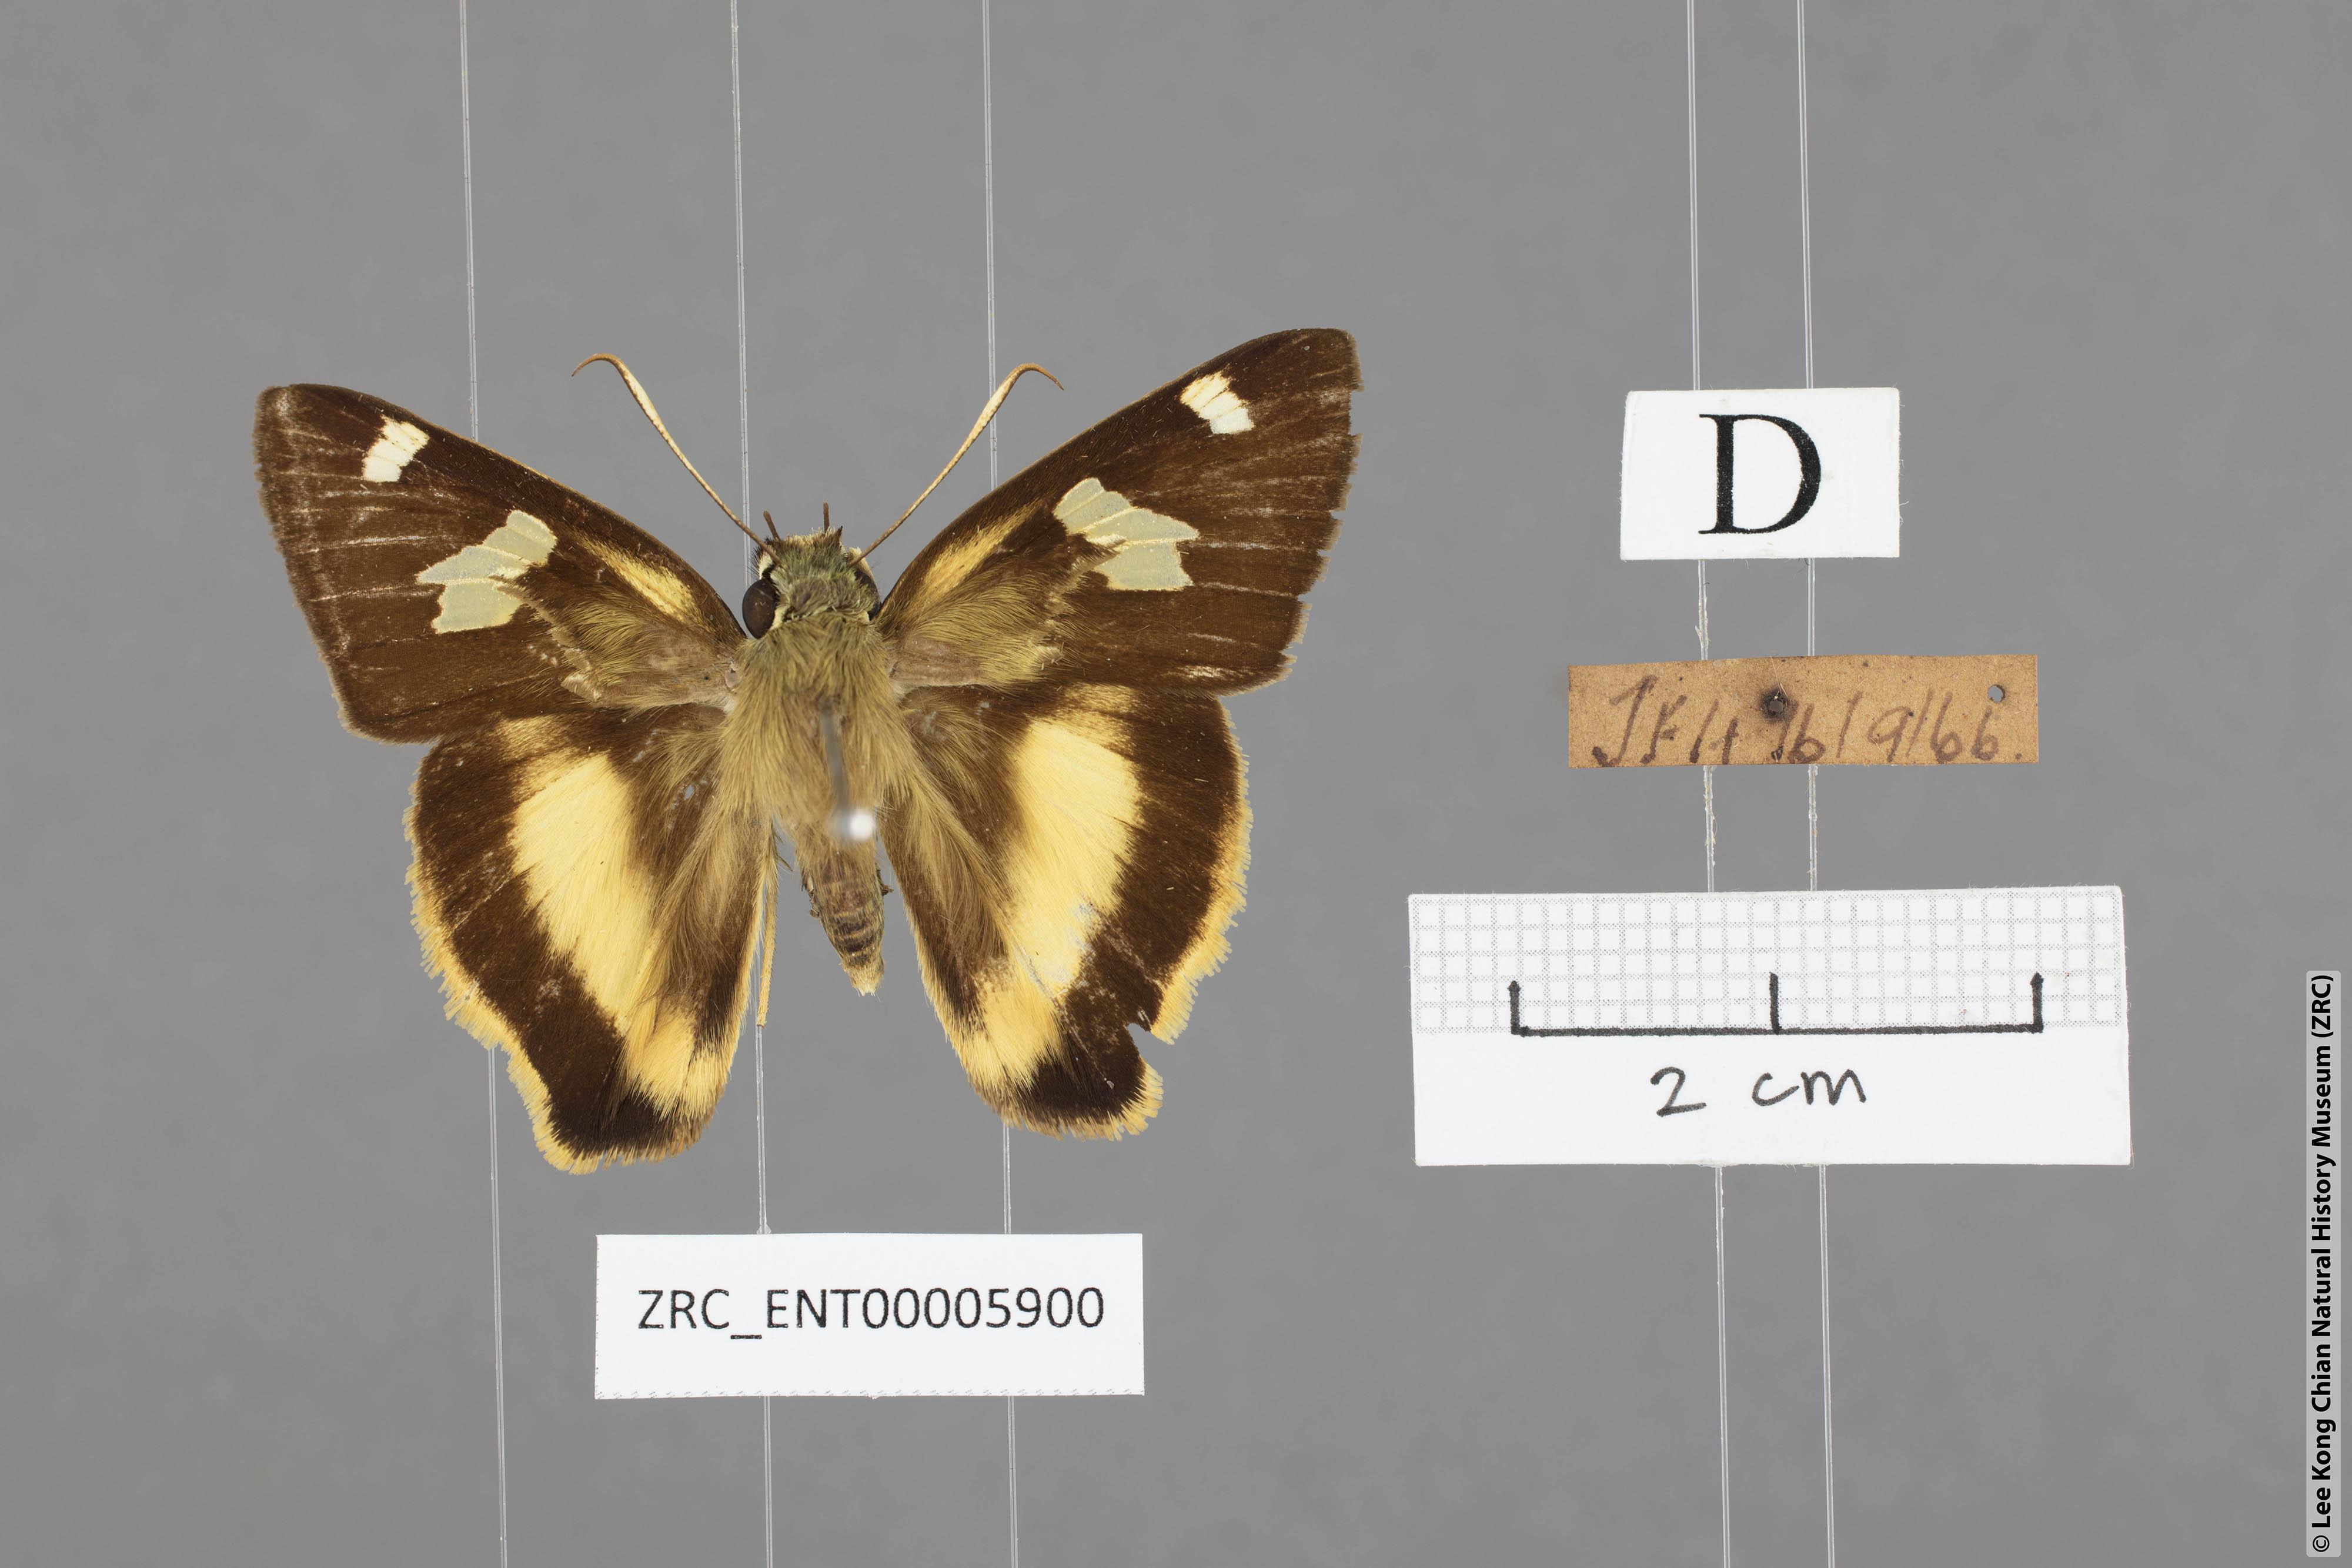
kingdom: Animalia
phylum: Arthropoda
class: Insecta
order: Lepidoptera
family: Hesperiidae
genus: Hasora
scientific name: Hasora schoenherr
